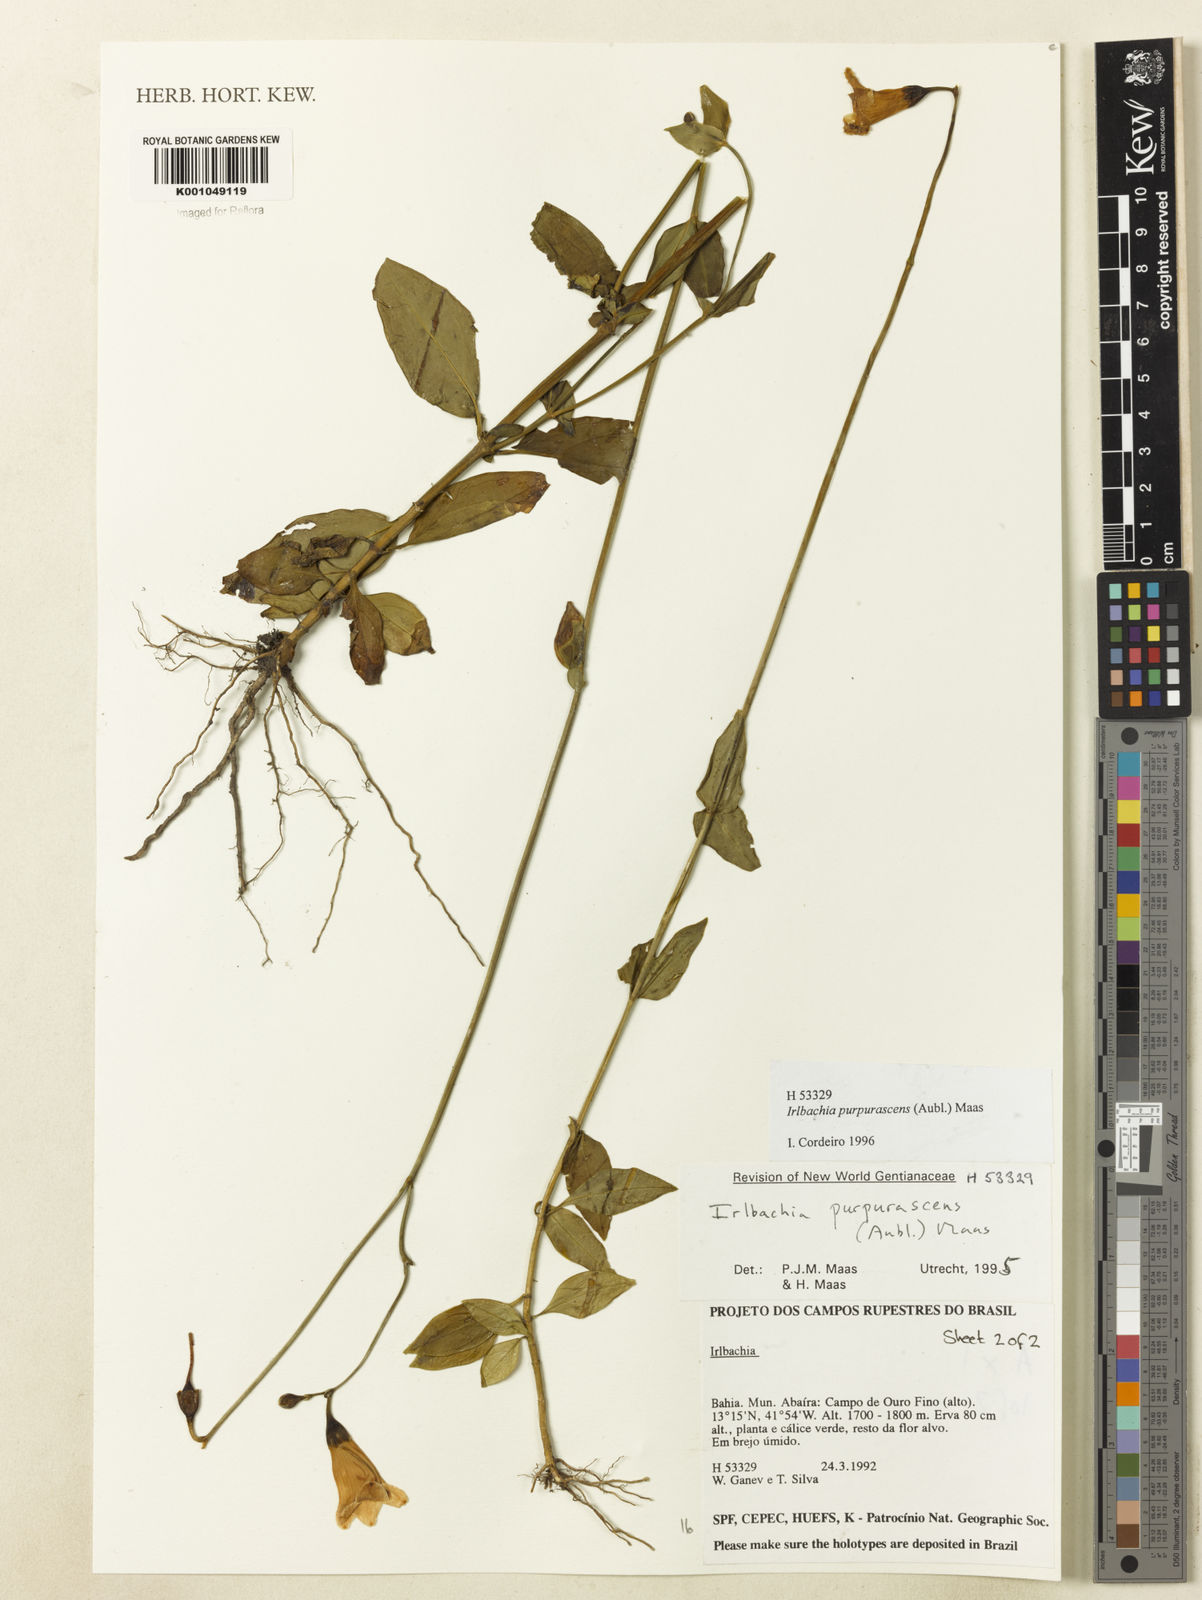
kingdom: Plantae
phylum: Tracheophyta
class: Magnoliopsida
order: Gentianales
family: Gentianaceae
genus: Chelonanthus
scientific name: Chelonanthus purpurascens
